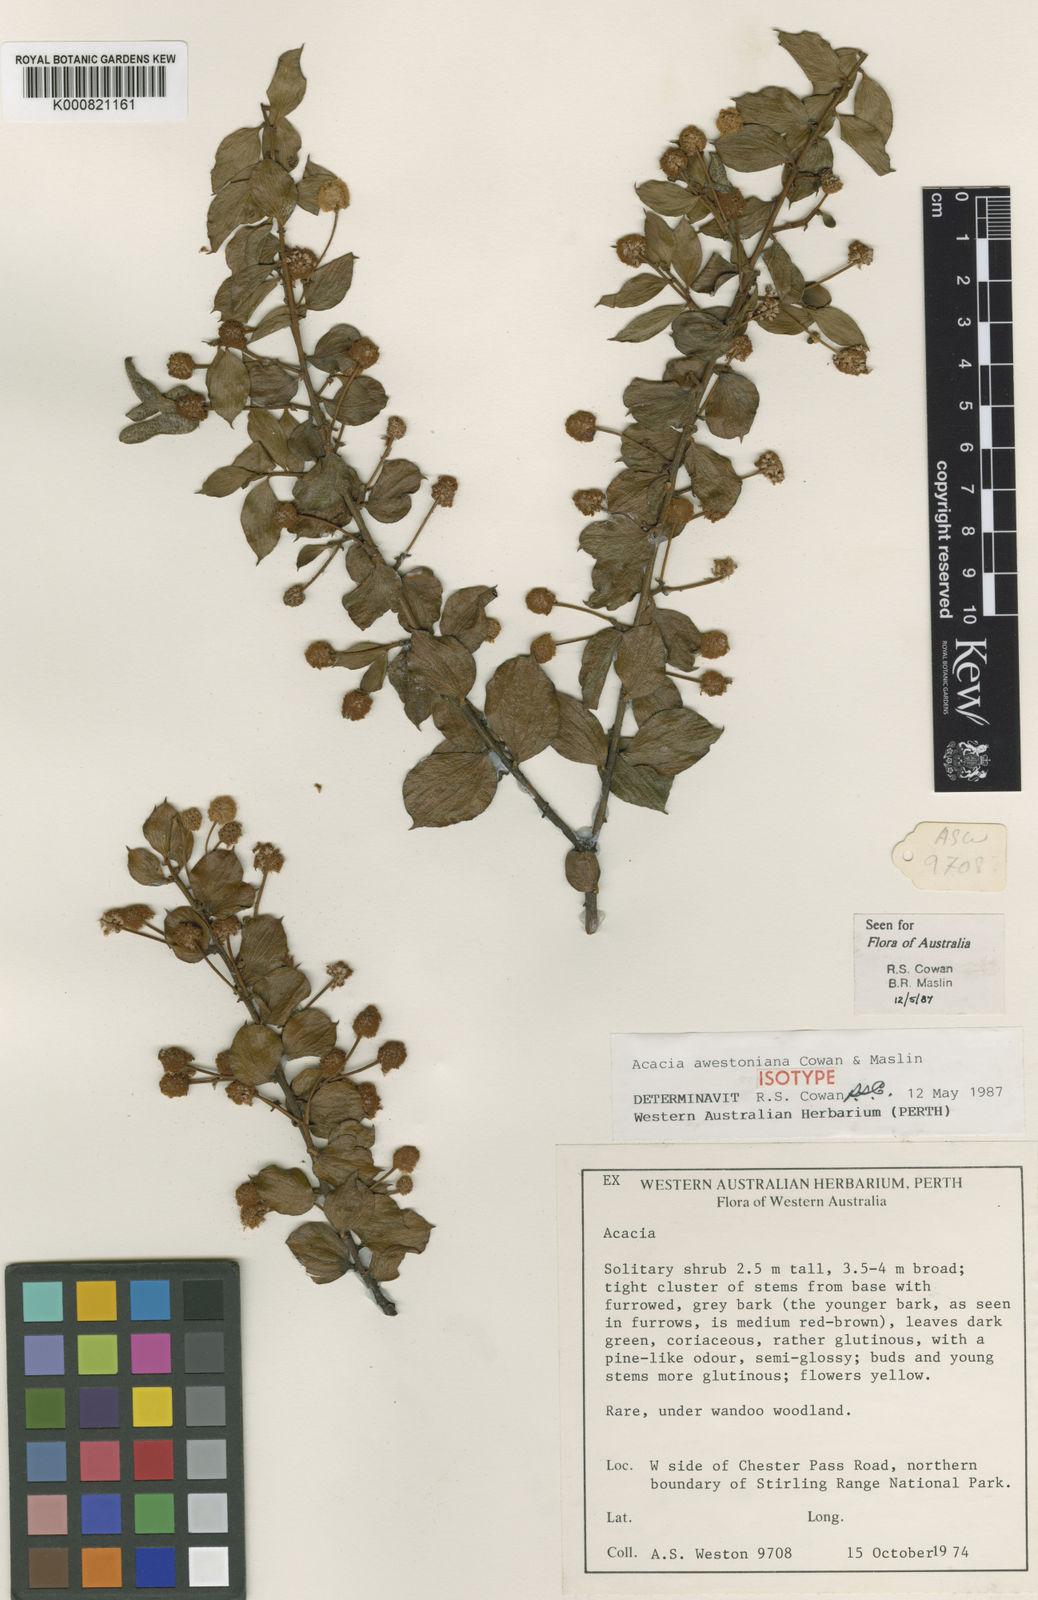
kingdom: Plantae
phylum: Tracheophyta
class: Magnoliopsida
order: Fabales
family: Fabaceae
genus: Acacia
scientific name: Acacia awestoniana
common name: Stirling range wattle
